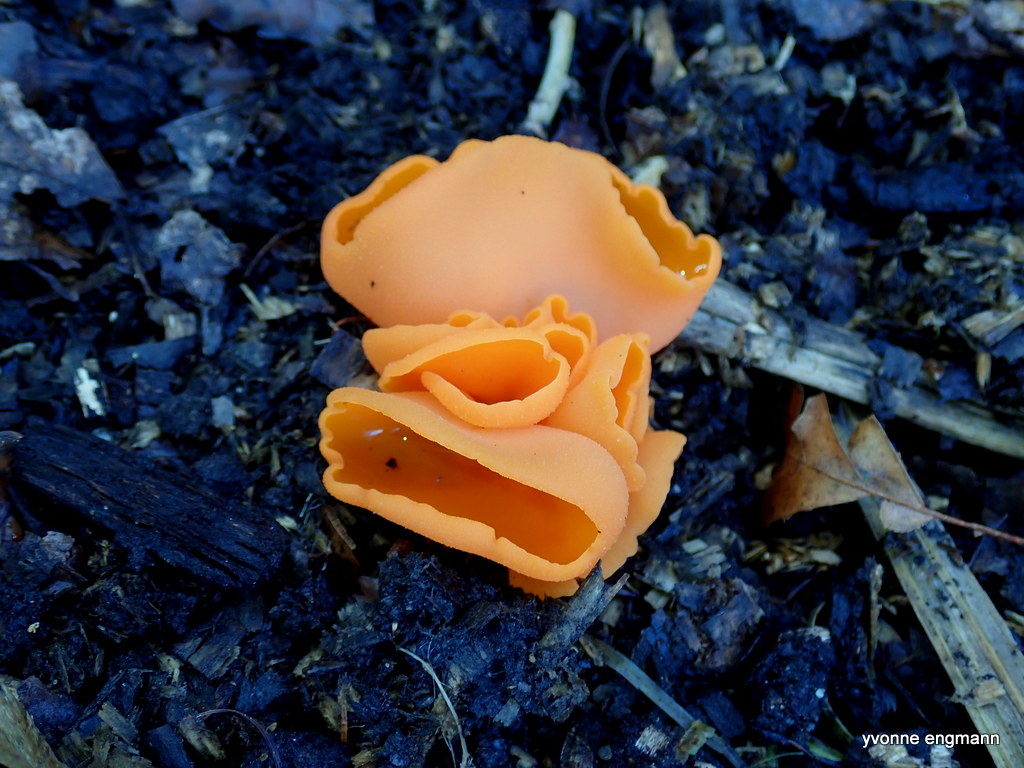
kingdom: Fungi
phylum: Ascomycota
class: Pezizomycetes
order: Pezizales
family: Pyronemataceae
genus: Aleuria
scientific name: Aleuria aurantia
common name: almindelig orangebæger
